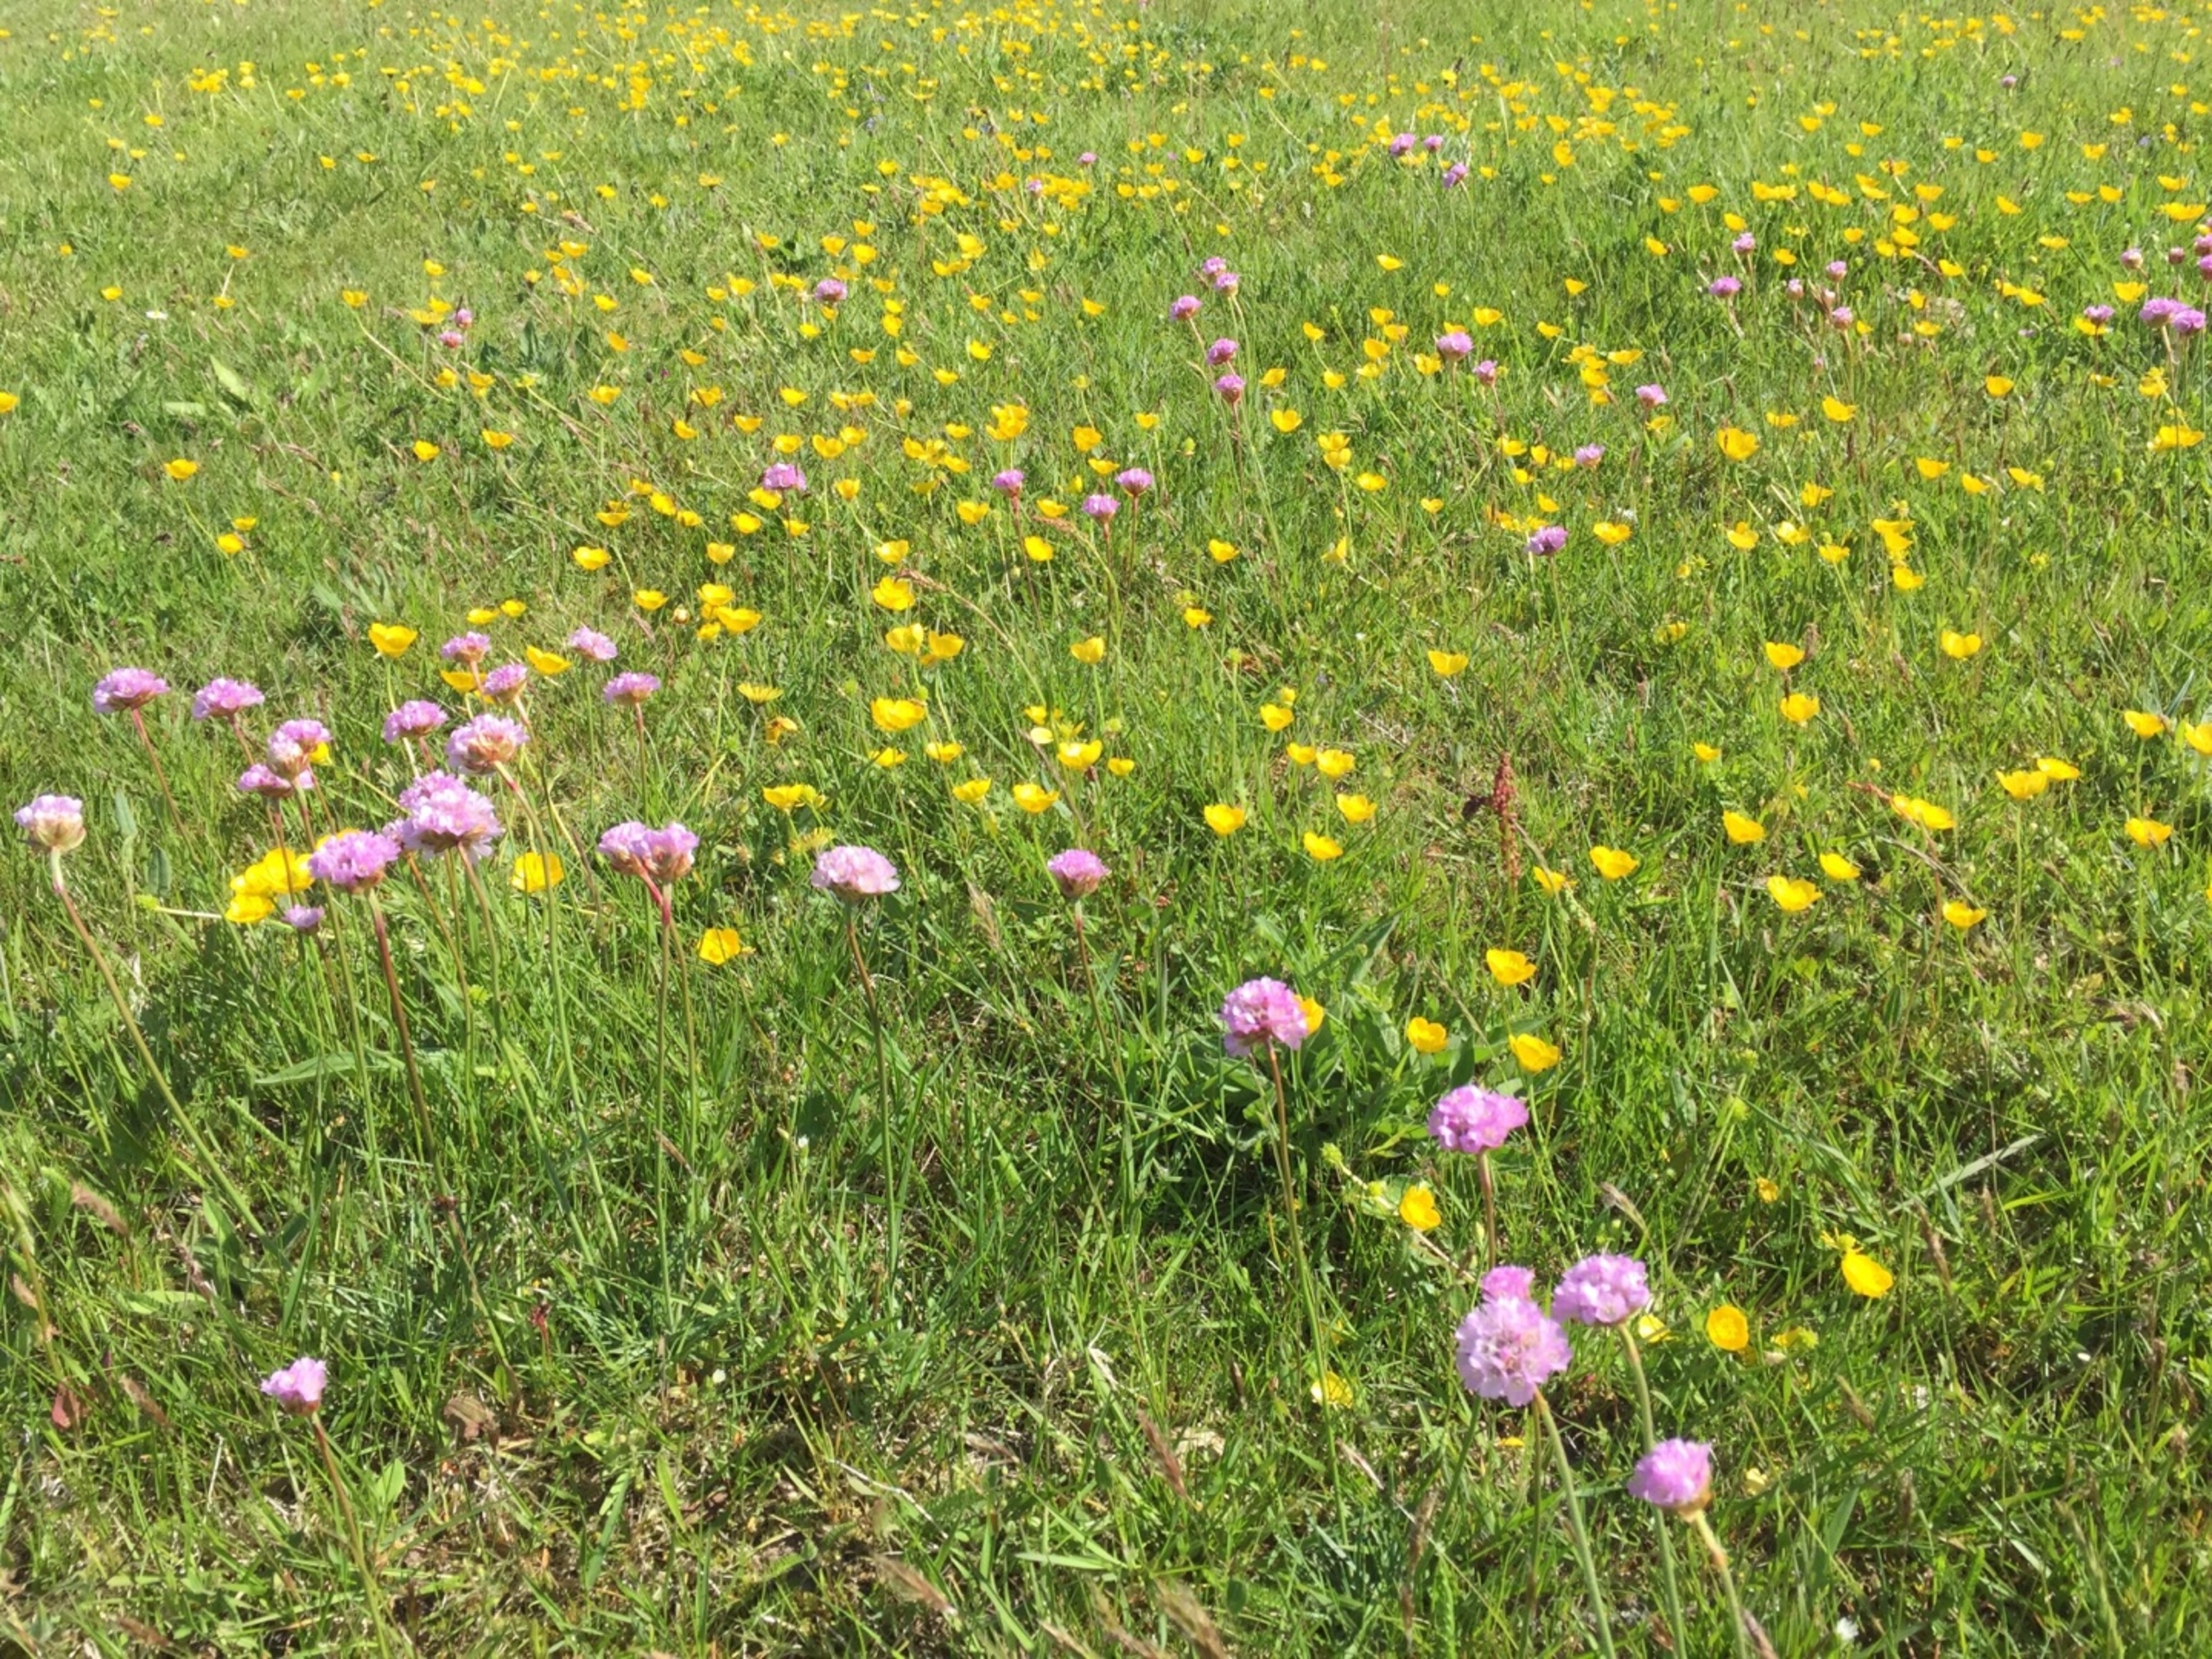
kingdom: Plantae
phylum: Tracheophyta
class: Magnoliopsida
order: Ranunculales
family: Ranunculaceae
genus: Ranunculus
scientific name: Ranunculus bulbosus
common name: Knold-ranunkel
